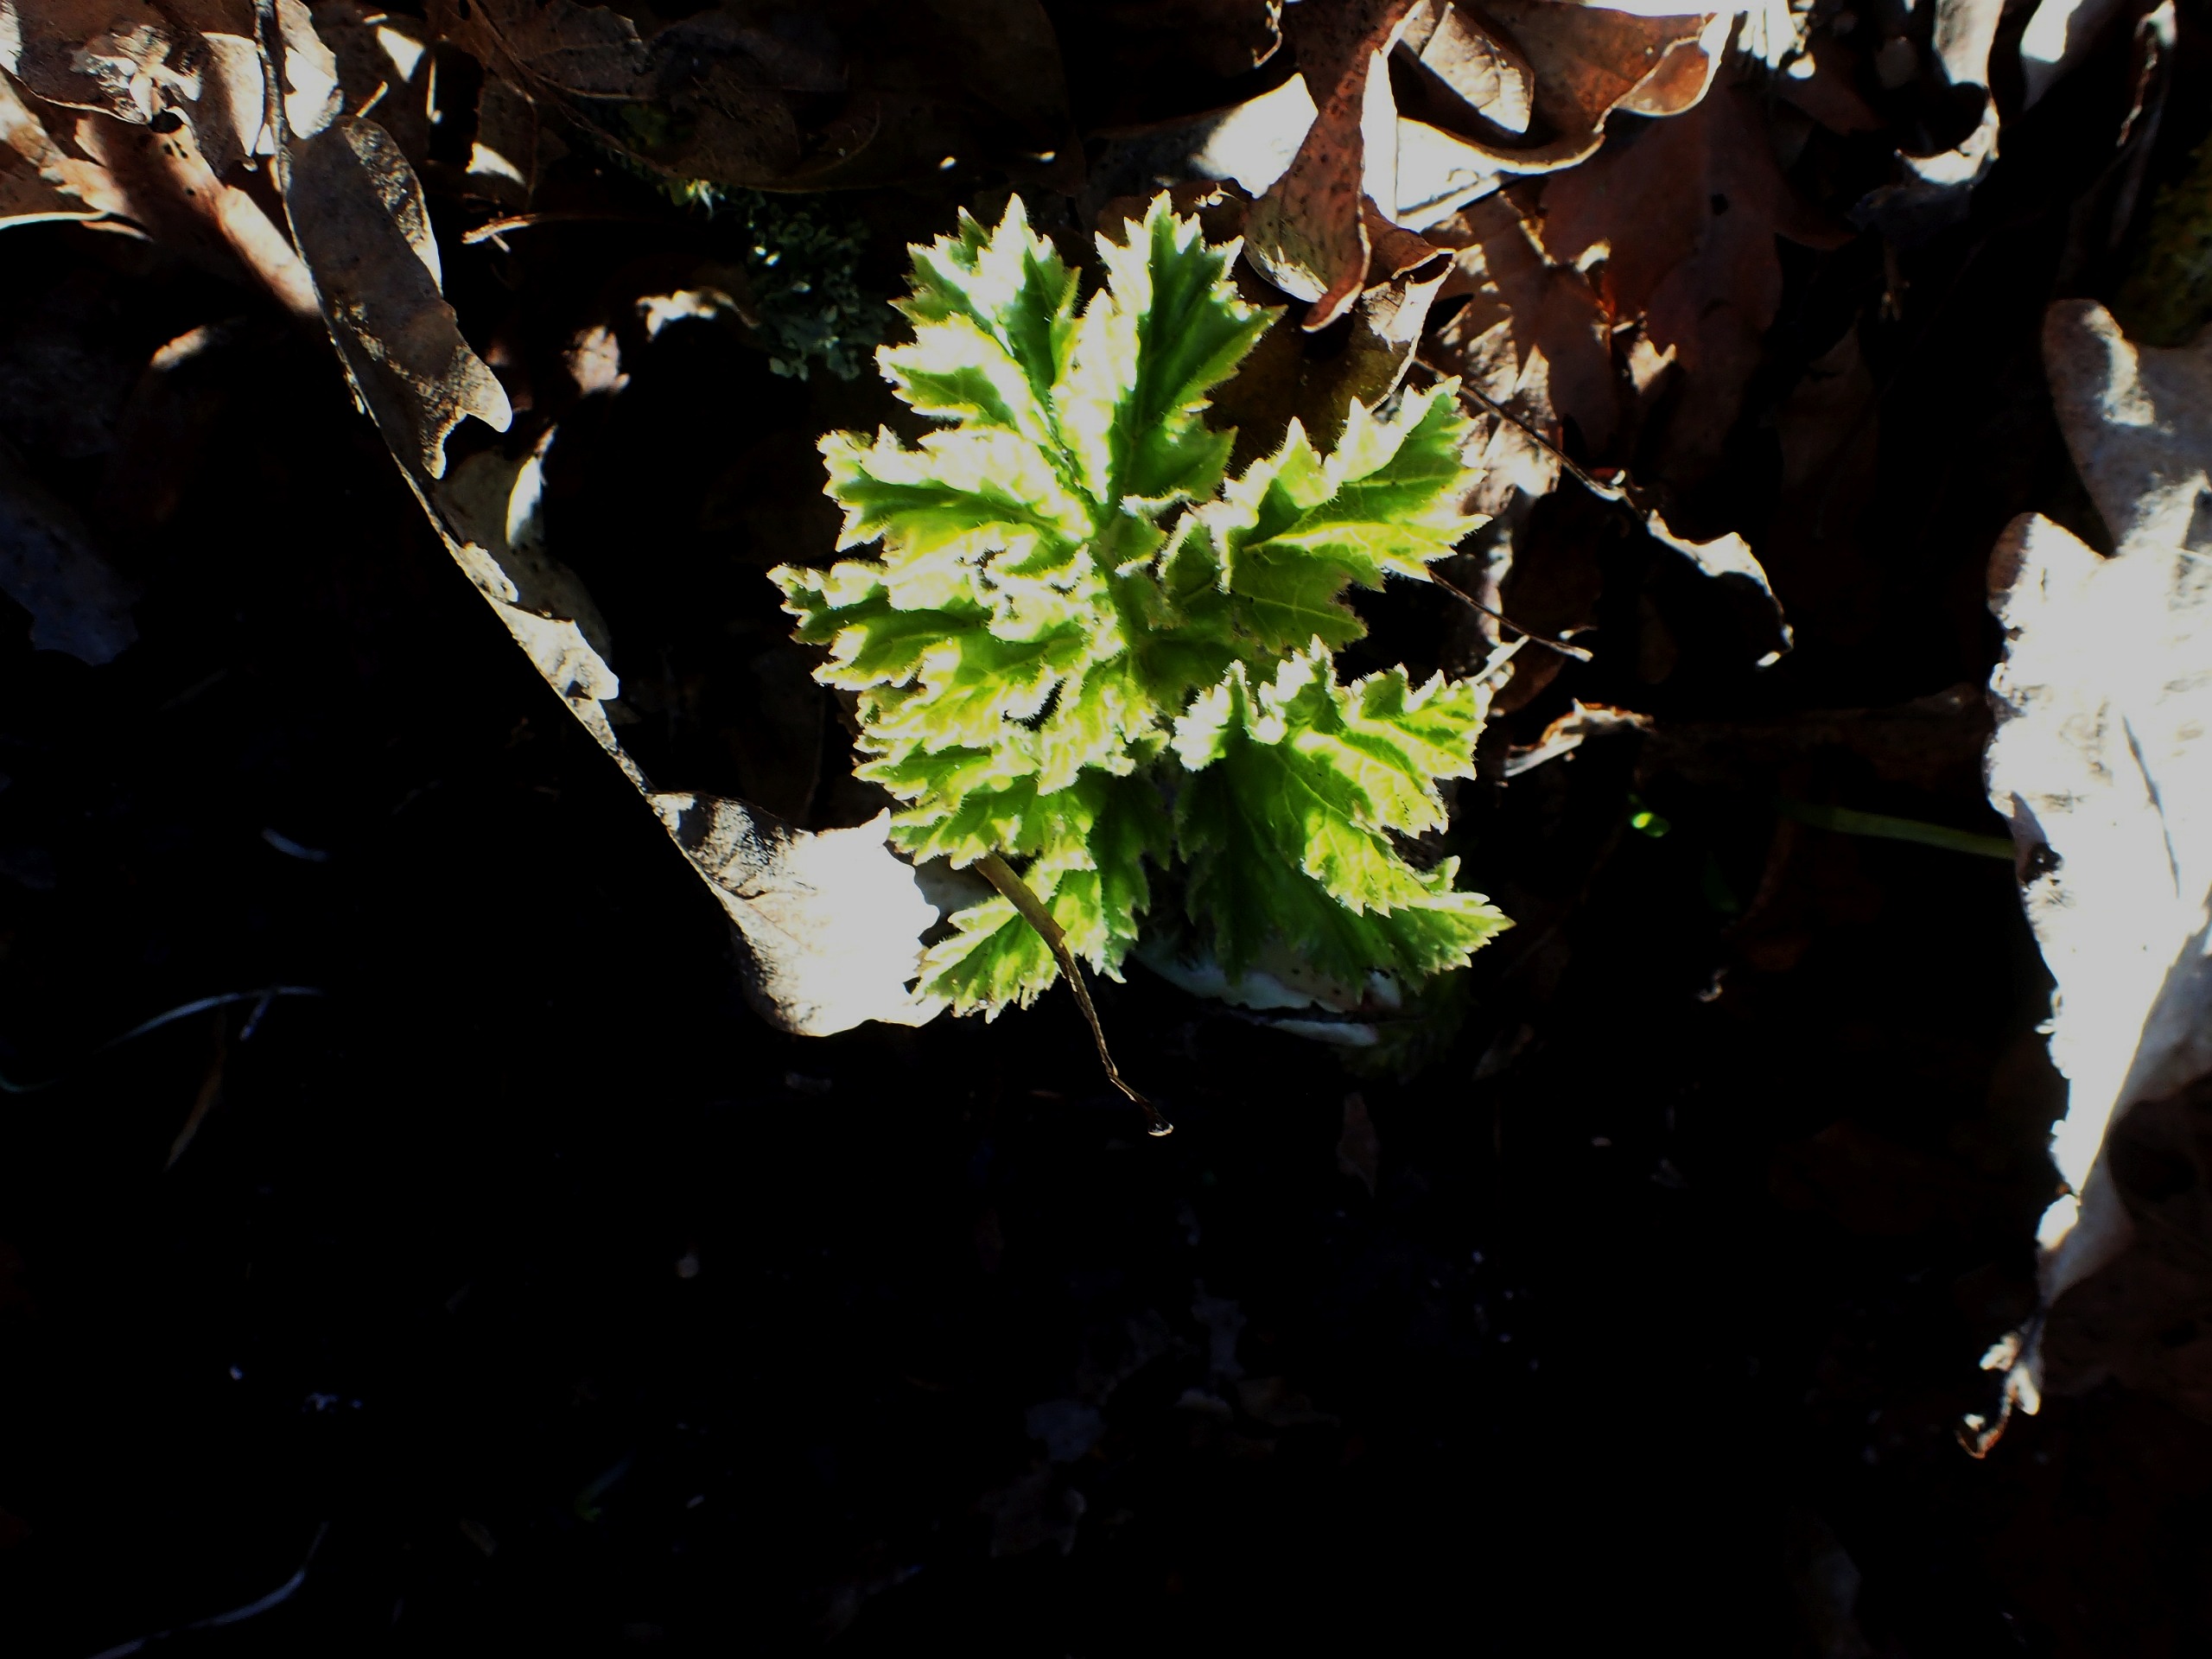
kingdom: Plantae
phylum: Tracheophyta
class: Magnoliopsida
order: Apiales
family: Apiaceae
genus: Heracleum
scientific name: Heracleum mantegazzianum
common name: Kæmpe-bjørneklo
